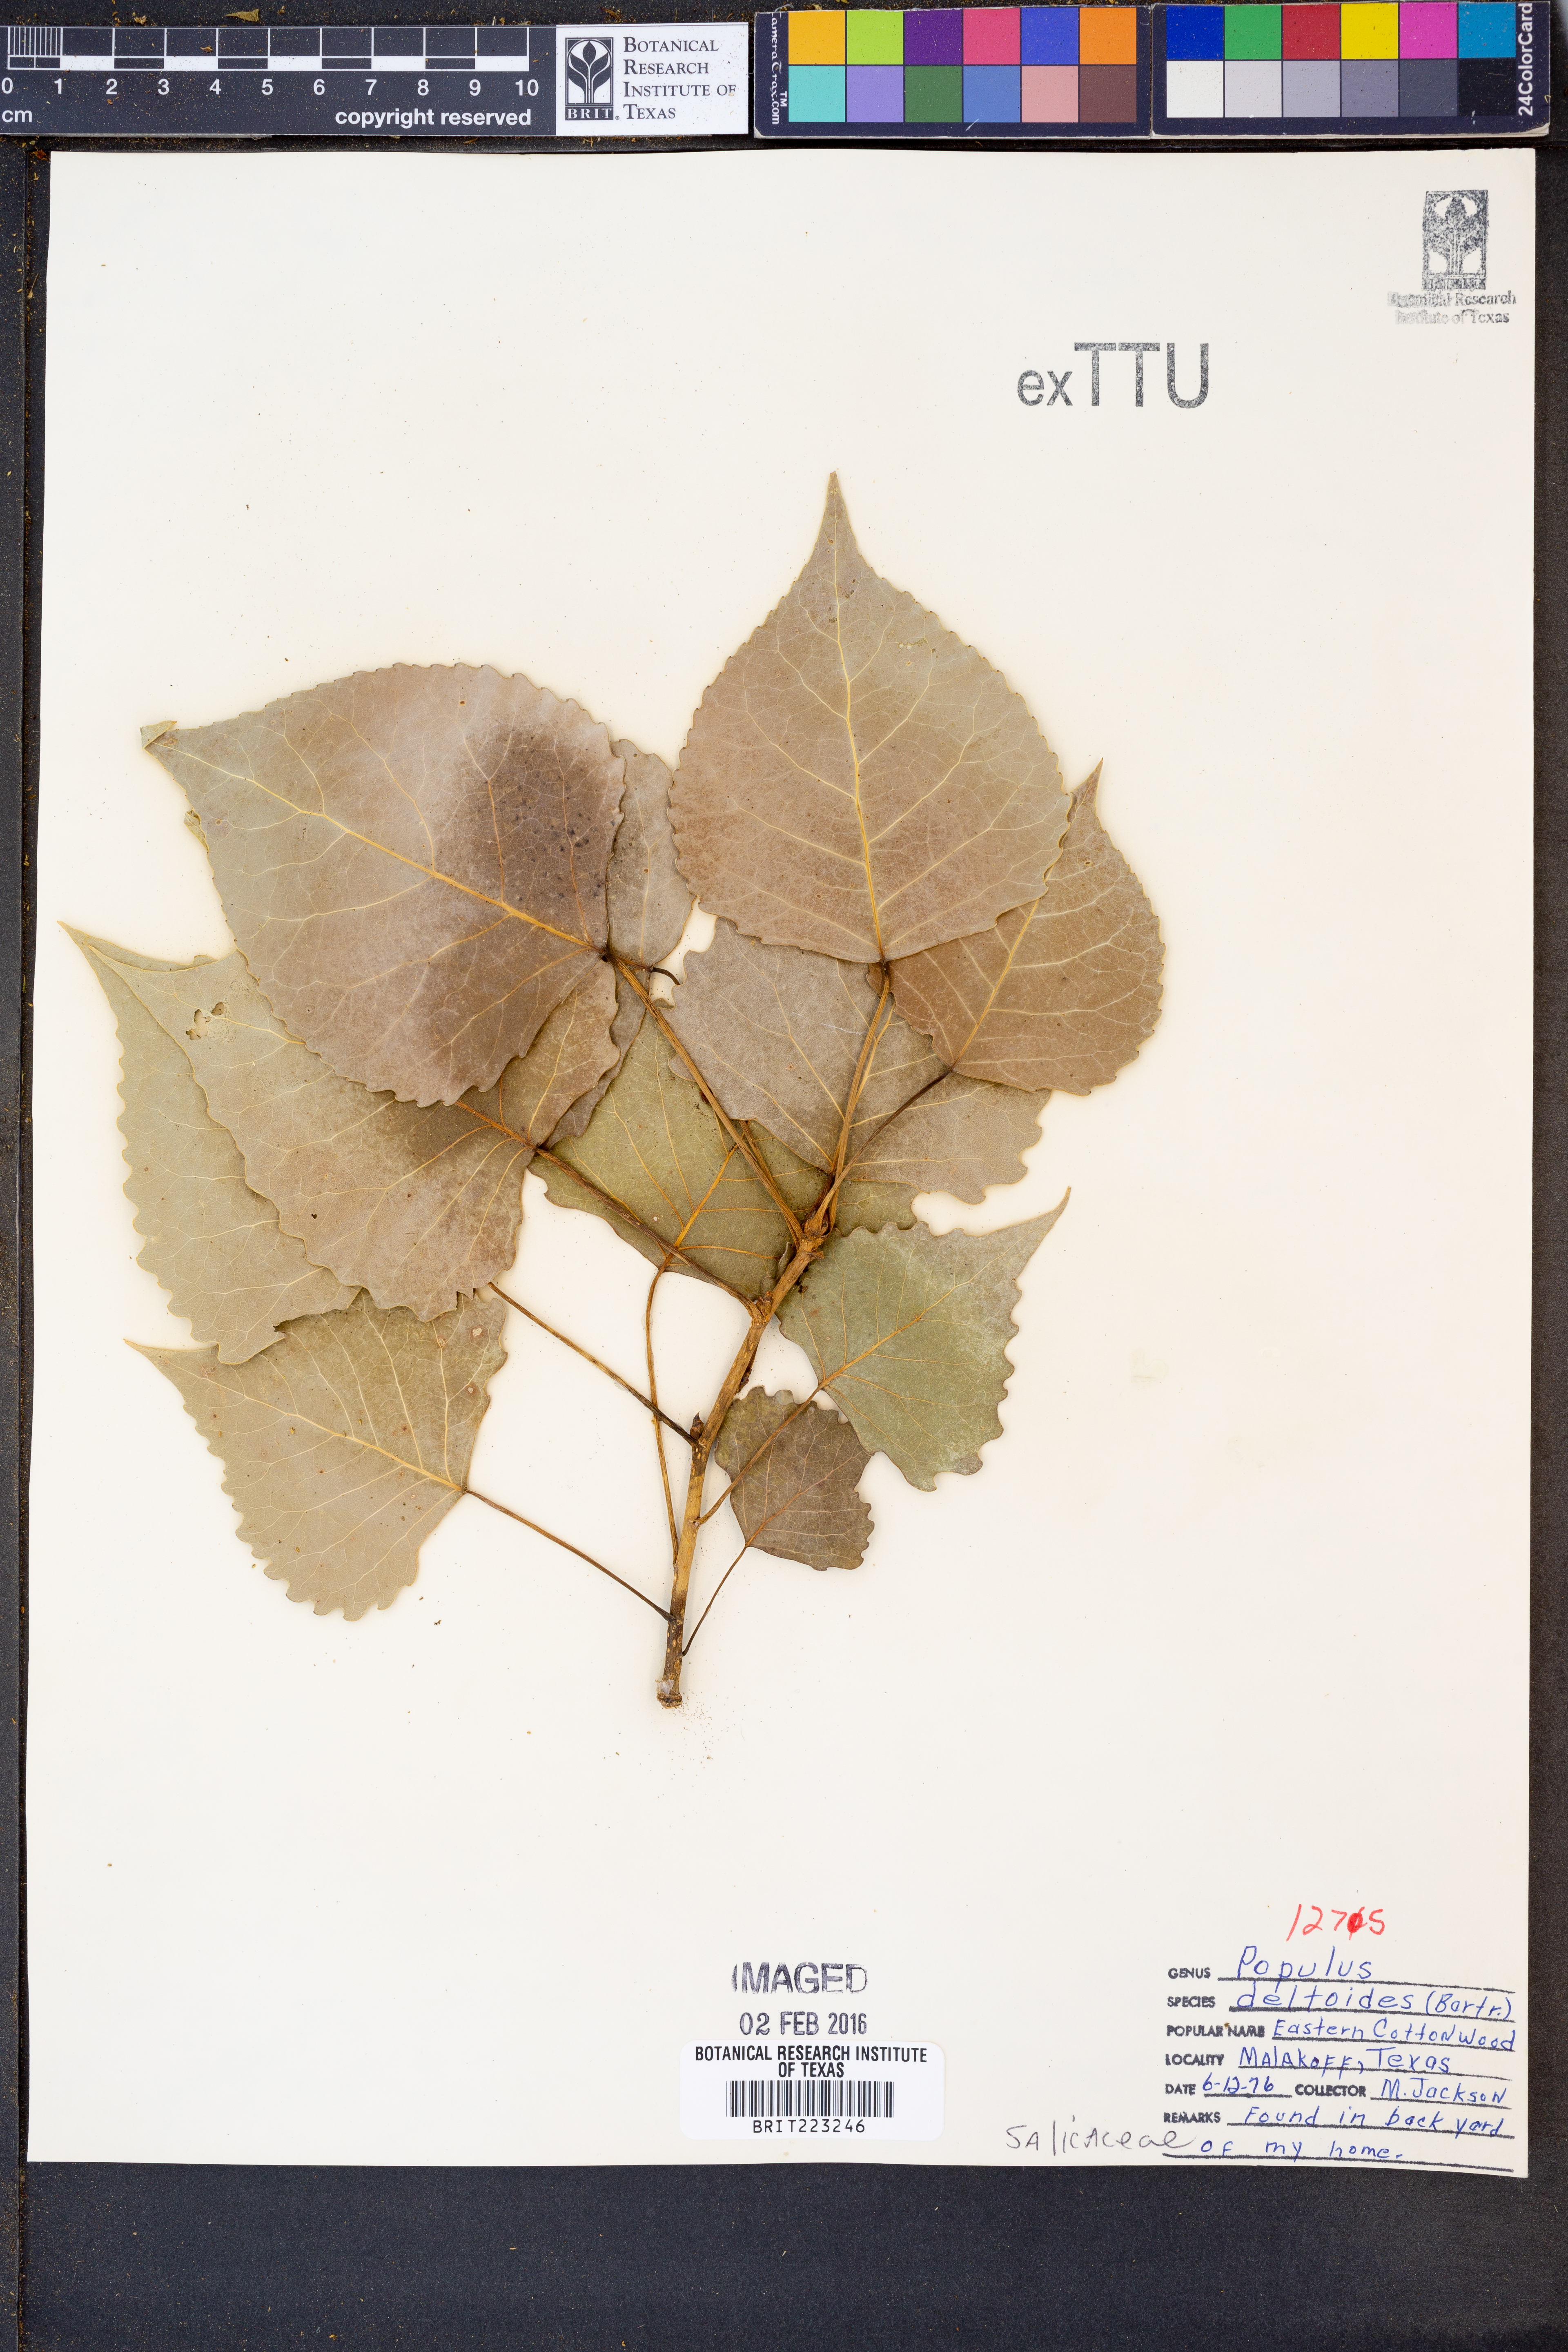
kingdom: Plantae
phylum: Tracheophyta
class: Magnoliopsida
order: Malpighiales
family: Salicaceae
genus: Populus
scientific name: Populus deltoides
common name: Eastern cottonwood
